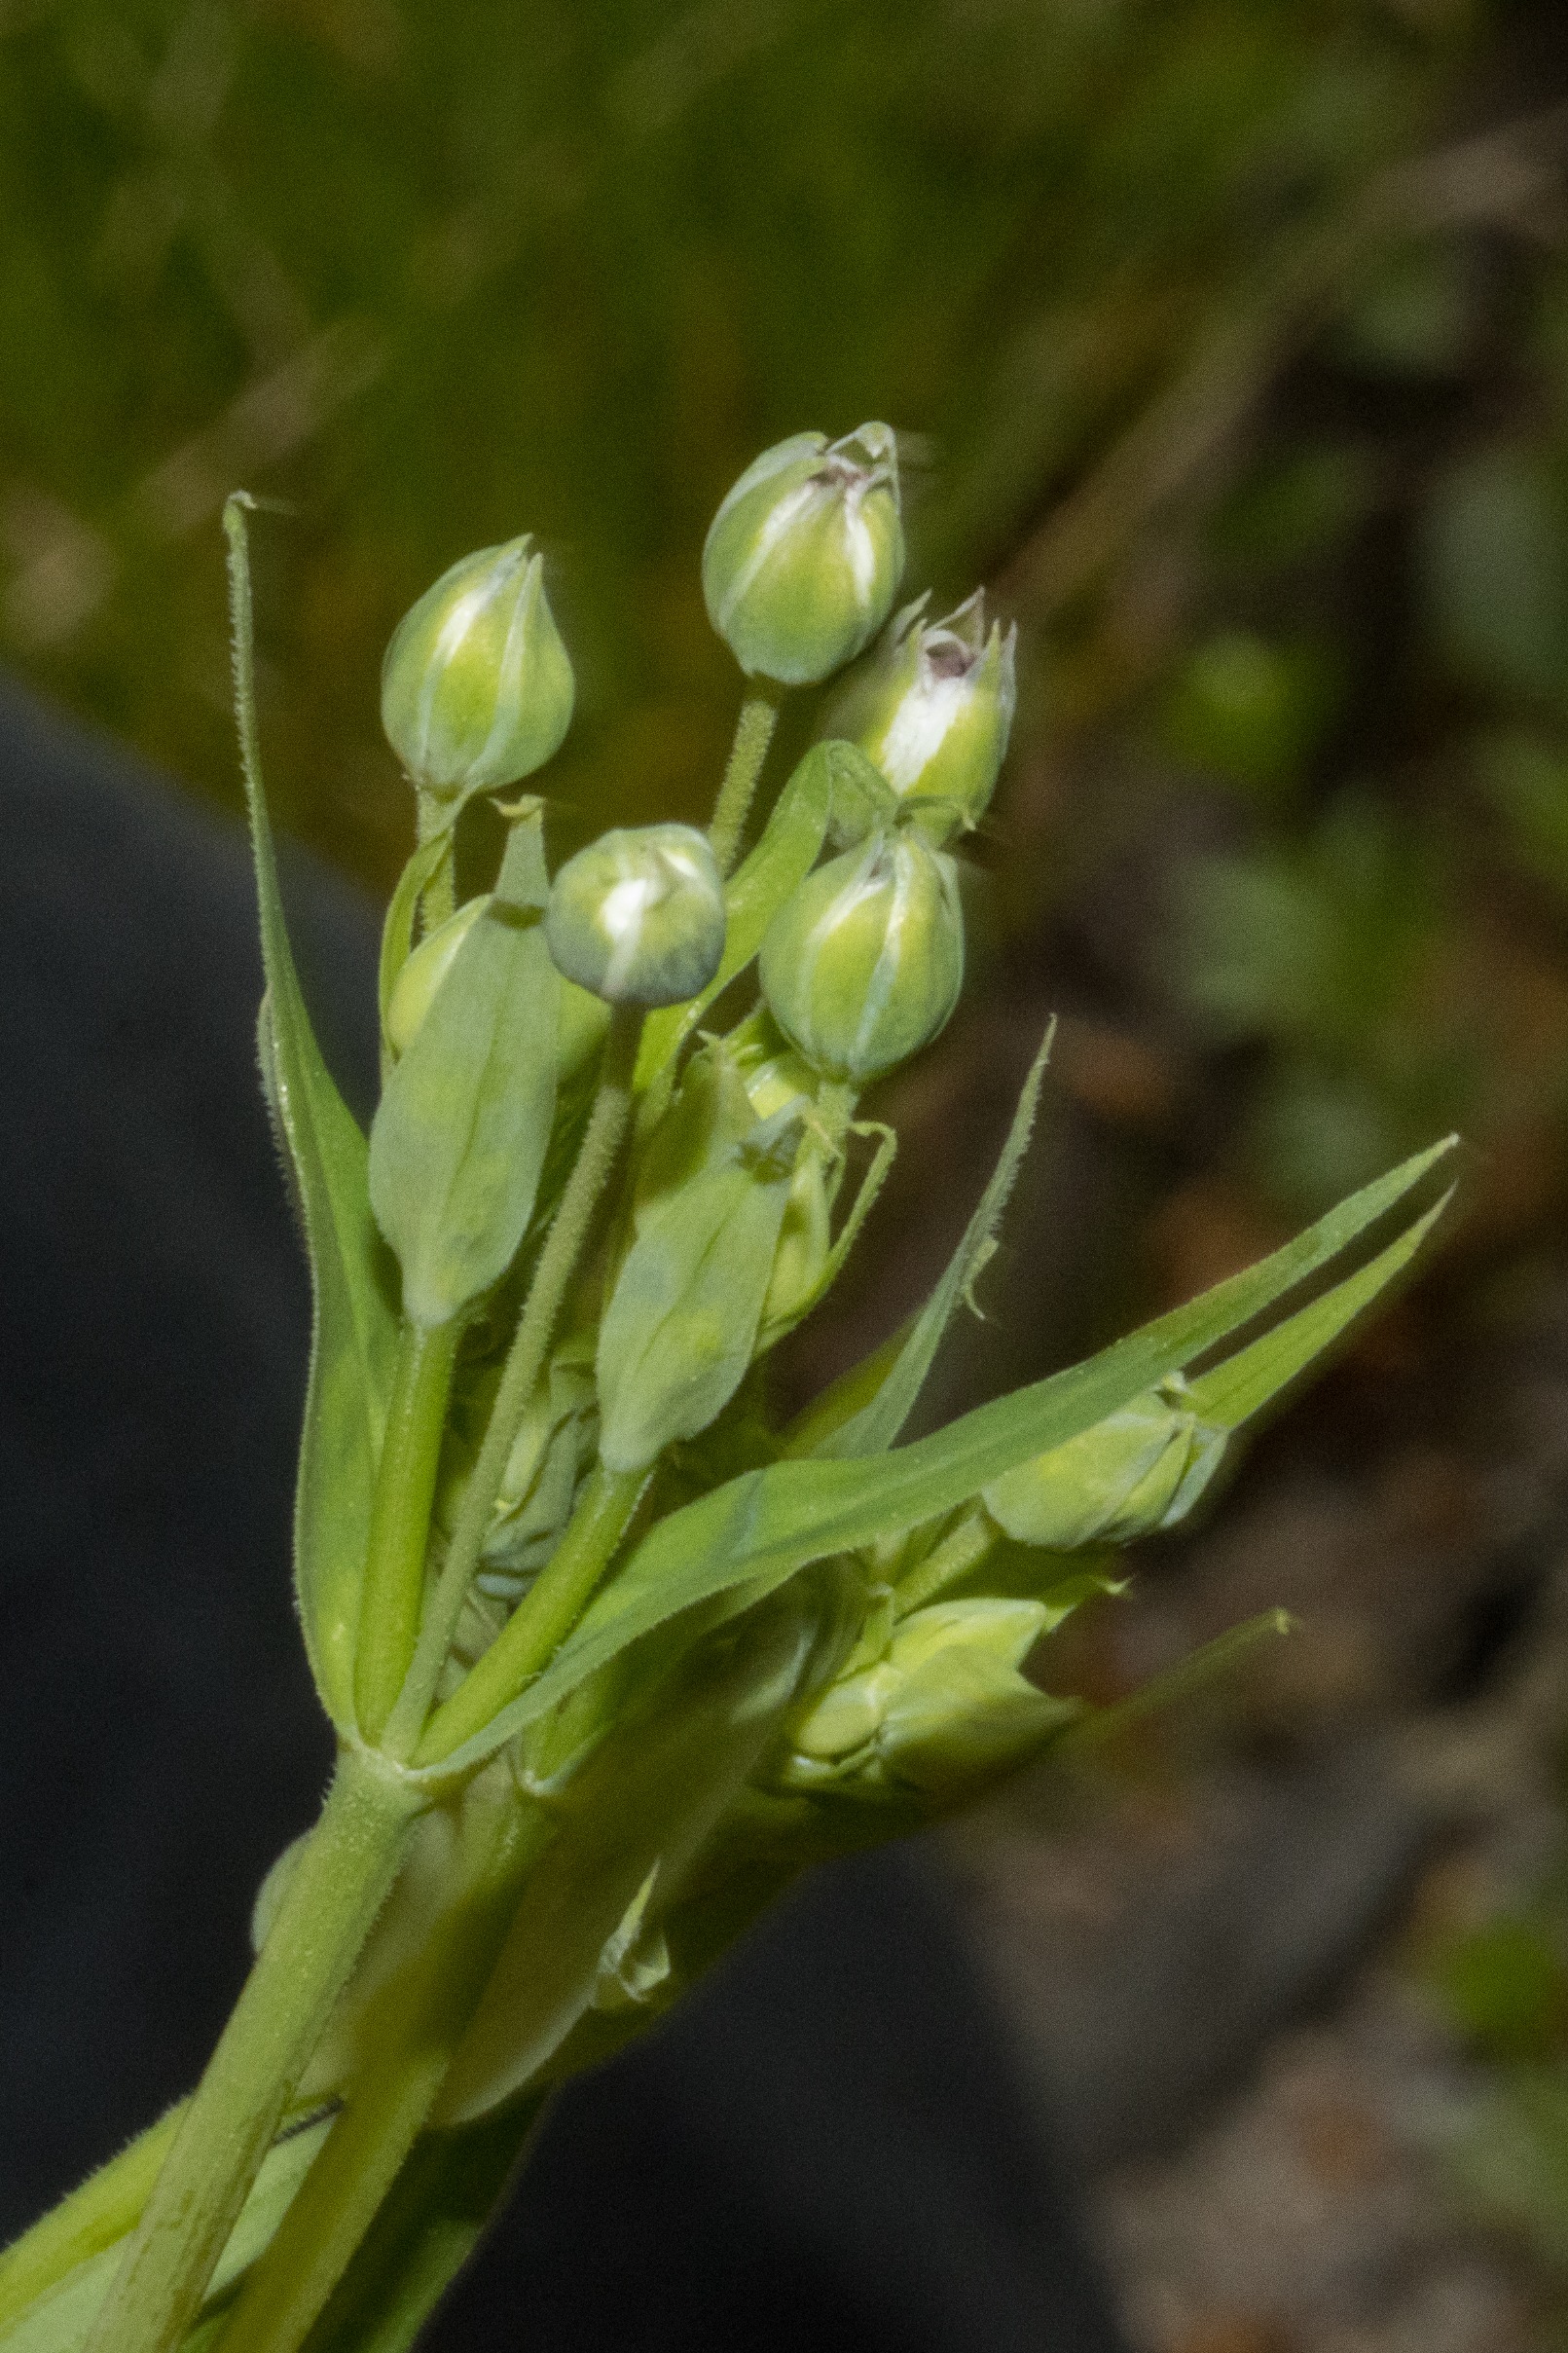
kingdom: Fungi
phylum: Basidiomycota
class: Microbotryomycetes
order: Microbotryales
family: Microbotryaceae
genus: Microbotryum
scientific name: Microbotryum stellariae
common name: Fladstjerne-støvbladrust
